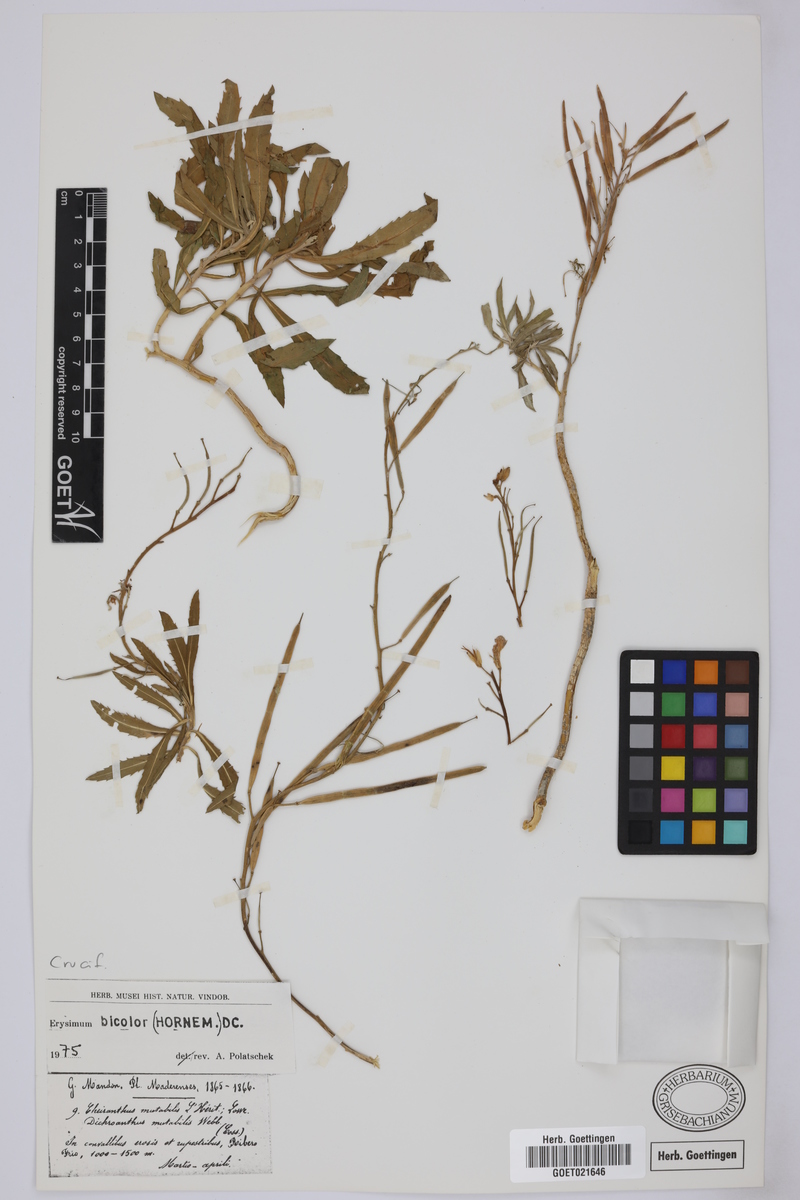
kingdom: Plantae
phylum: Tracheophyta
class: Magnoliopsida
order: Brassicales
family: Brassicaceae
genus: Erysimum
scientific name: Erysimum bicolor
